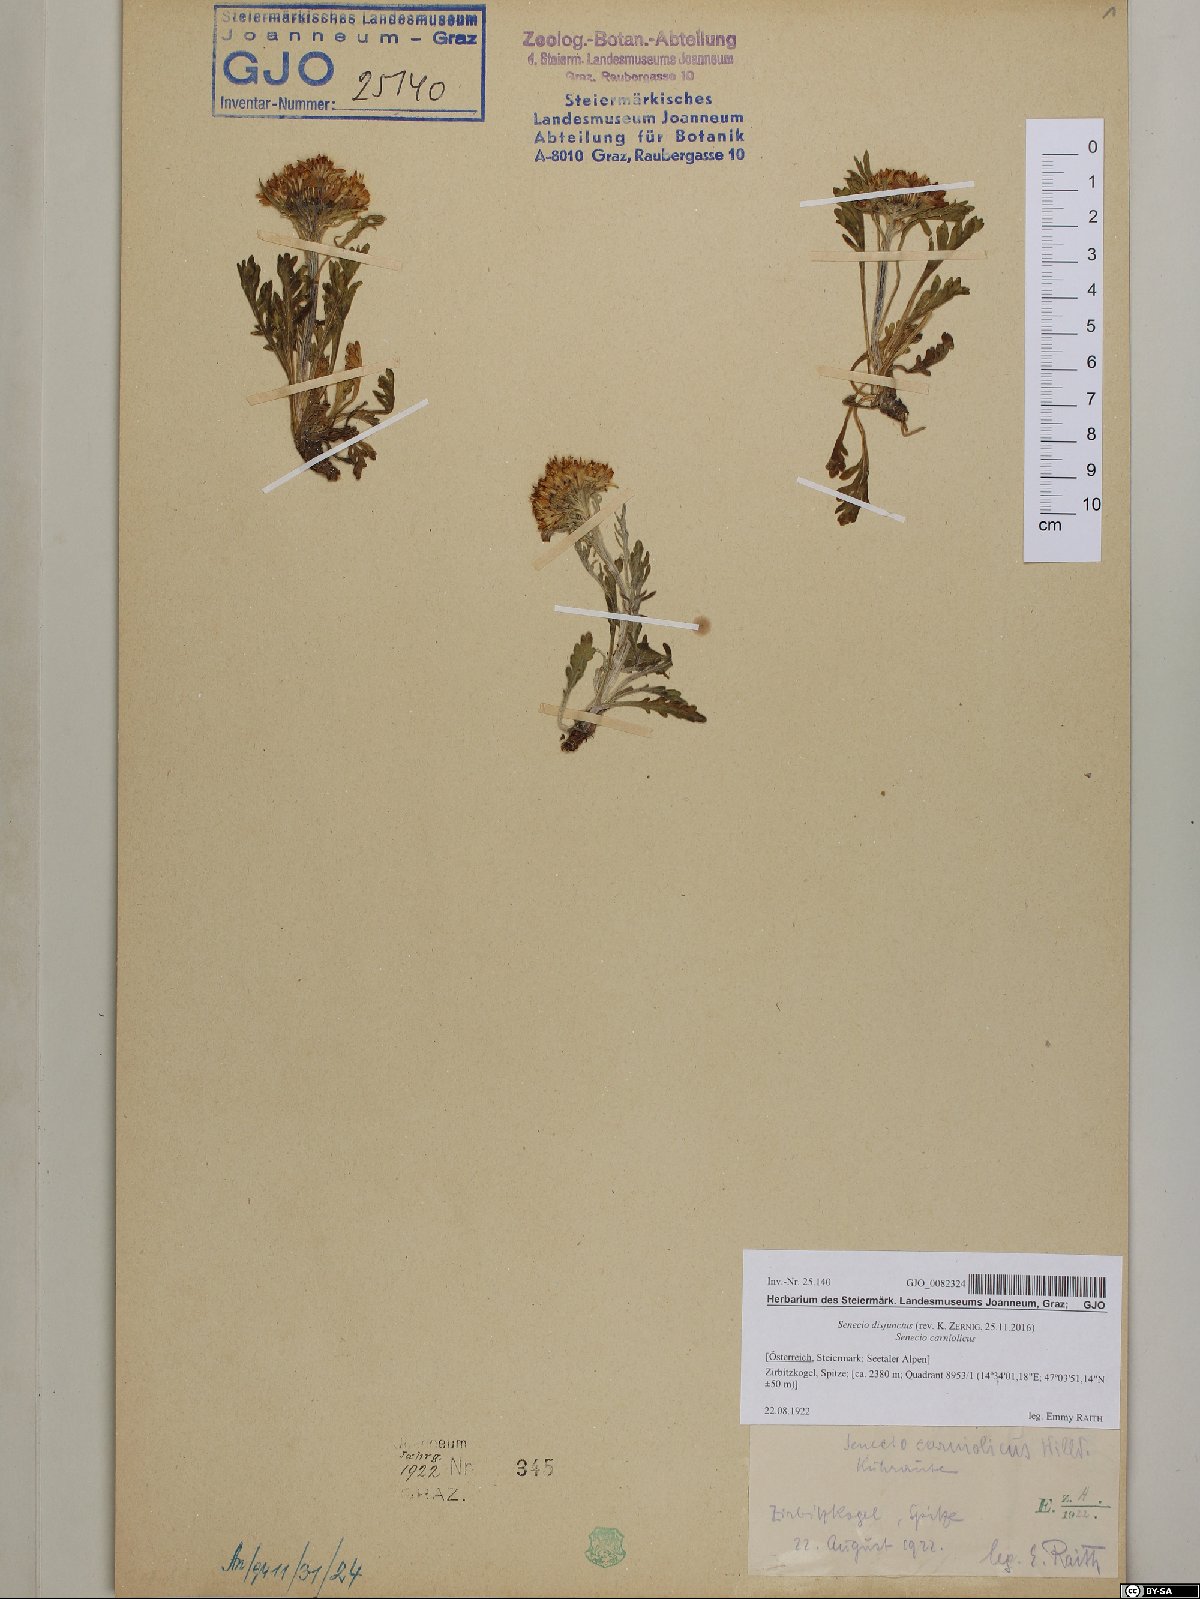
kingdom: Plantae
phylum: Tracheophyta
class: Magnoliopsida
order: Asterales
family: Asteraceae
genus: Jacobaea
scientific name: Jacobaea disjuncta
